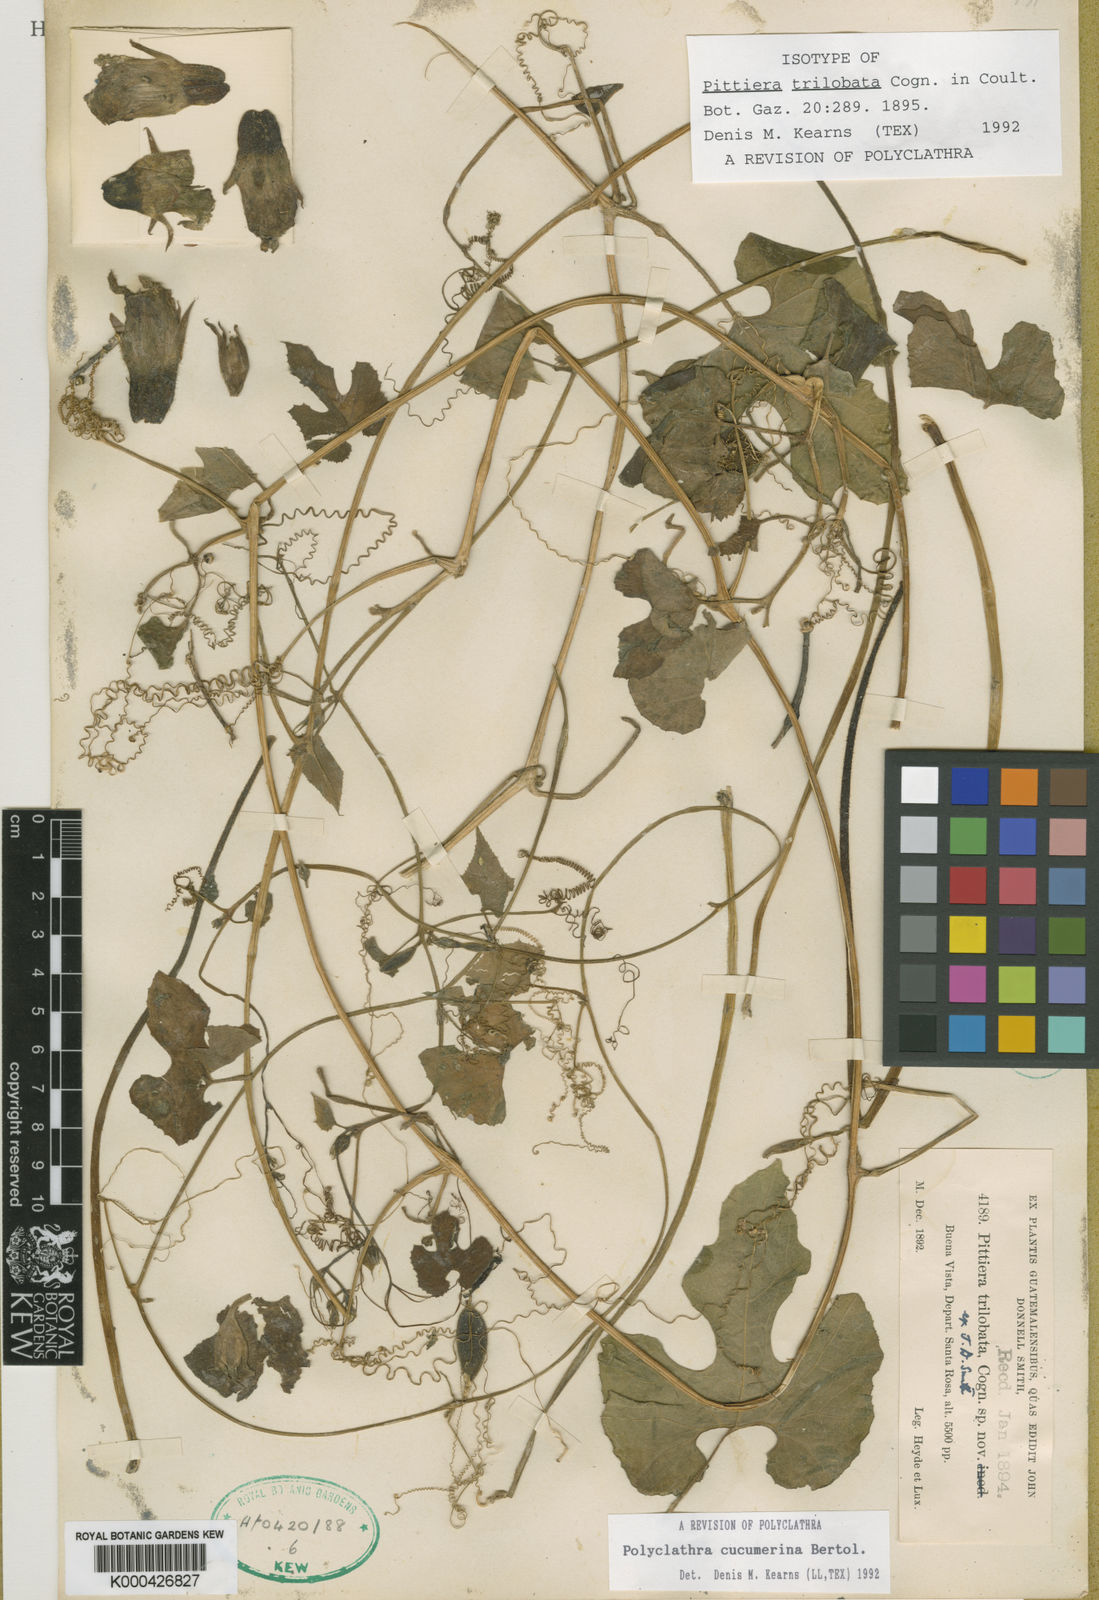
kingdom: Plantae
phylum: Tracheophyta
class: Magnoliopsida
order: Cucurbitales
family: Cucurbitaceae
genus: Polyclathra
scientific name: Polyclathra cucumerina
